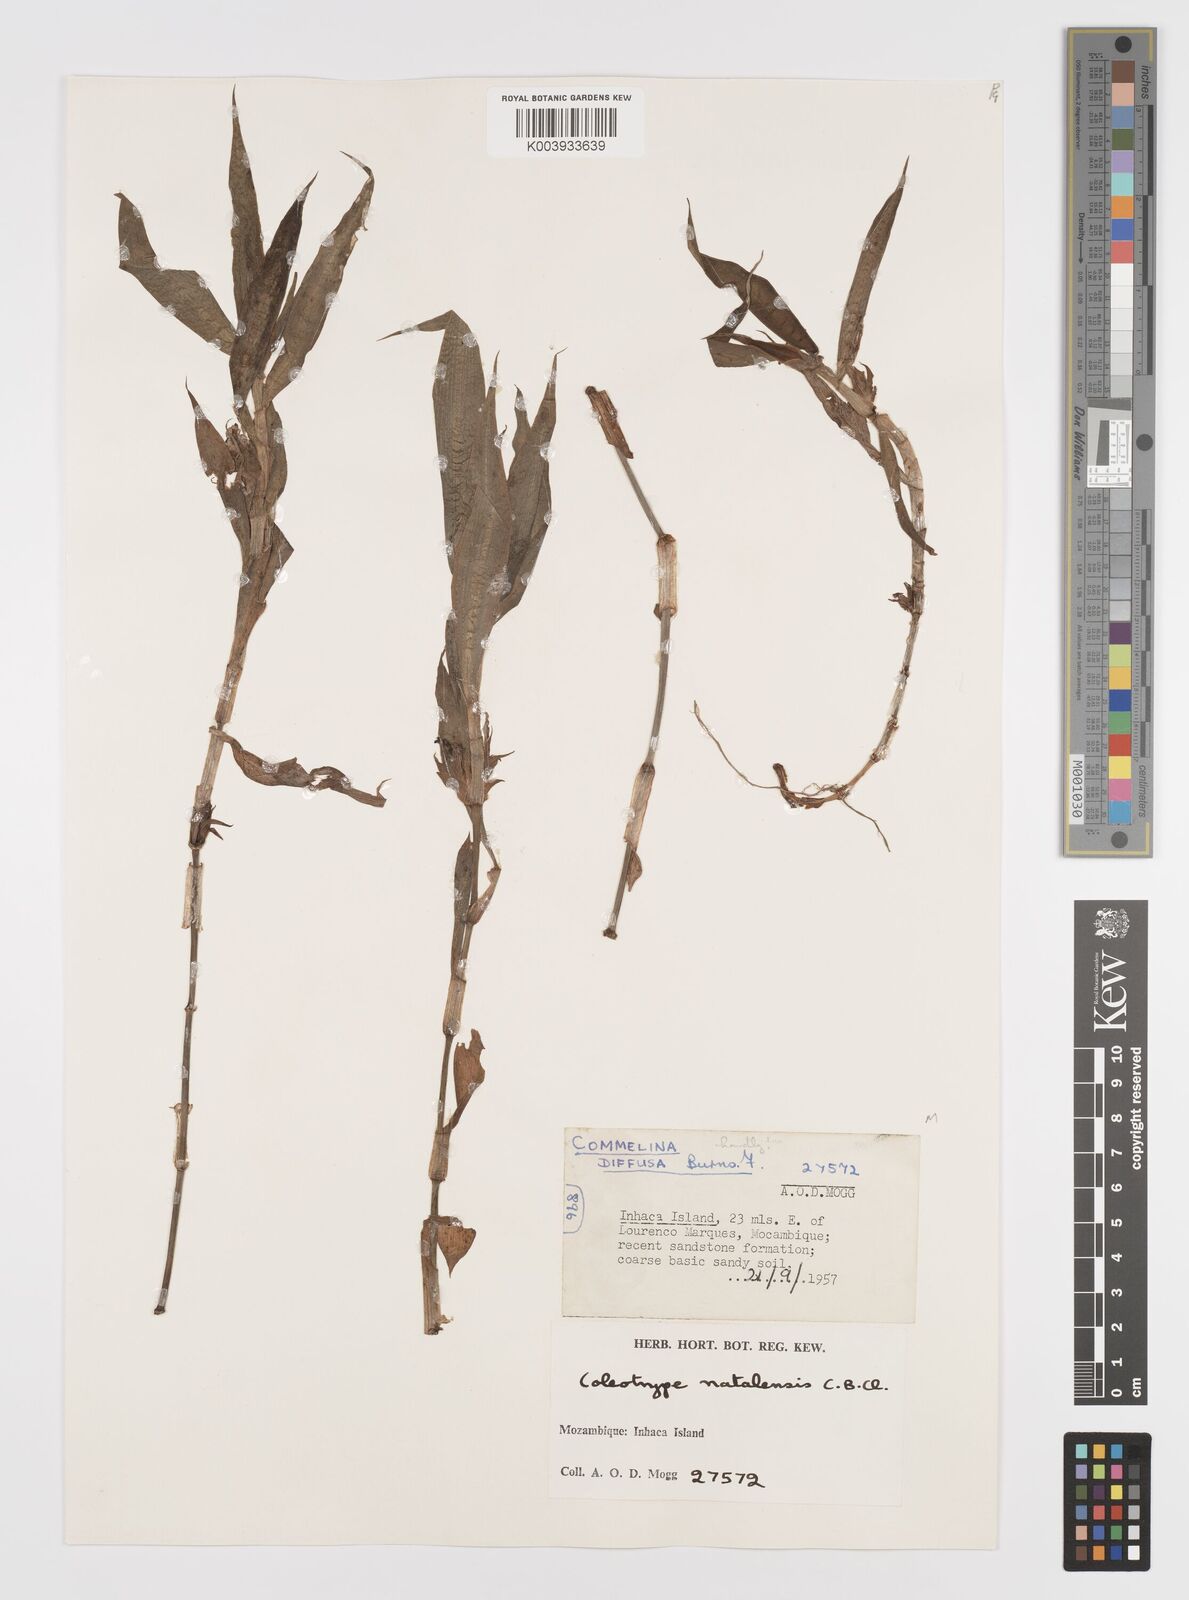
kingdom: Plantae
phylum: Tracheophyta
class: Liliopsida
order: Commelinales
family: Commelinaceae
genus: Coleotrype
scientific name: Coleotrype natalensis
